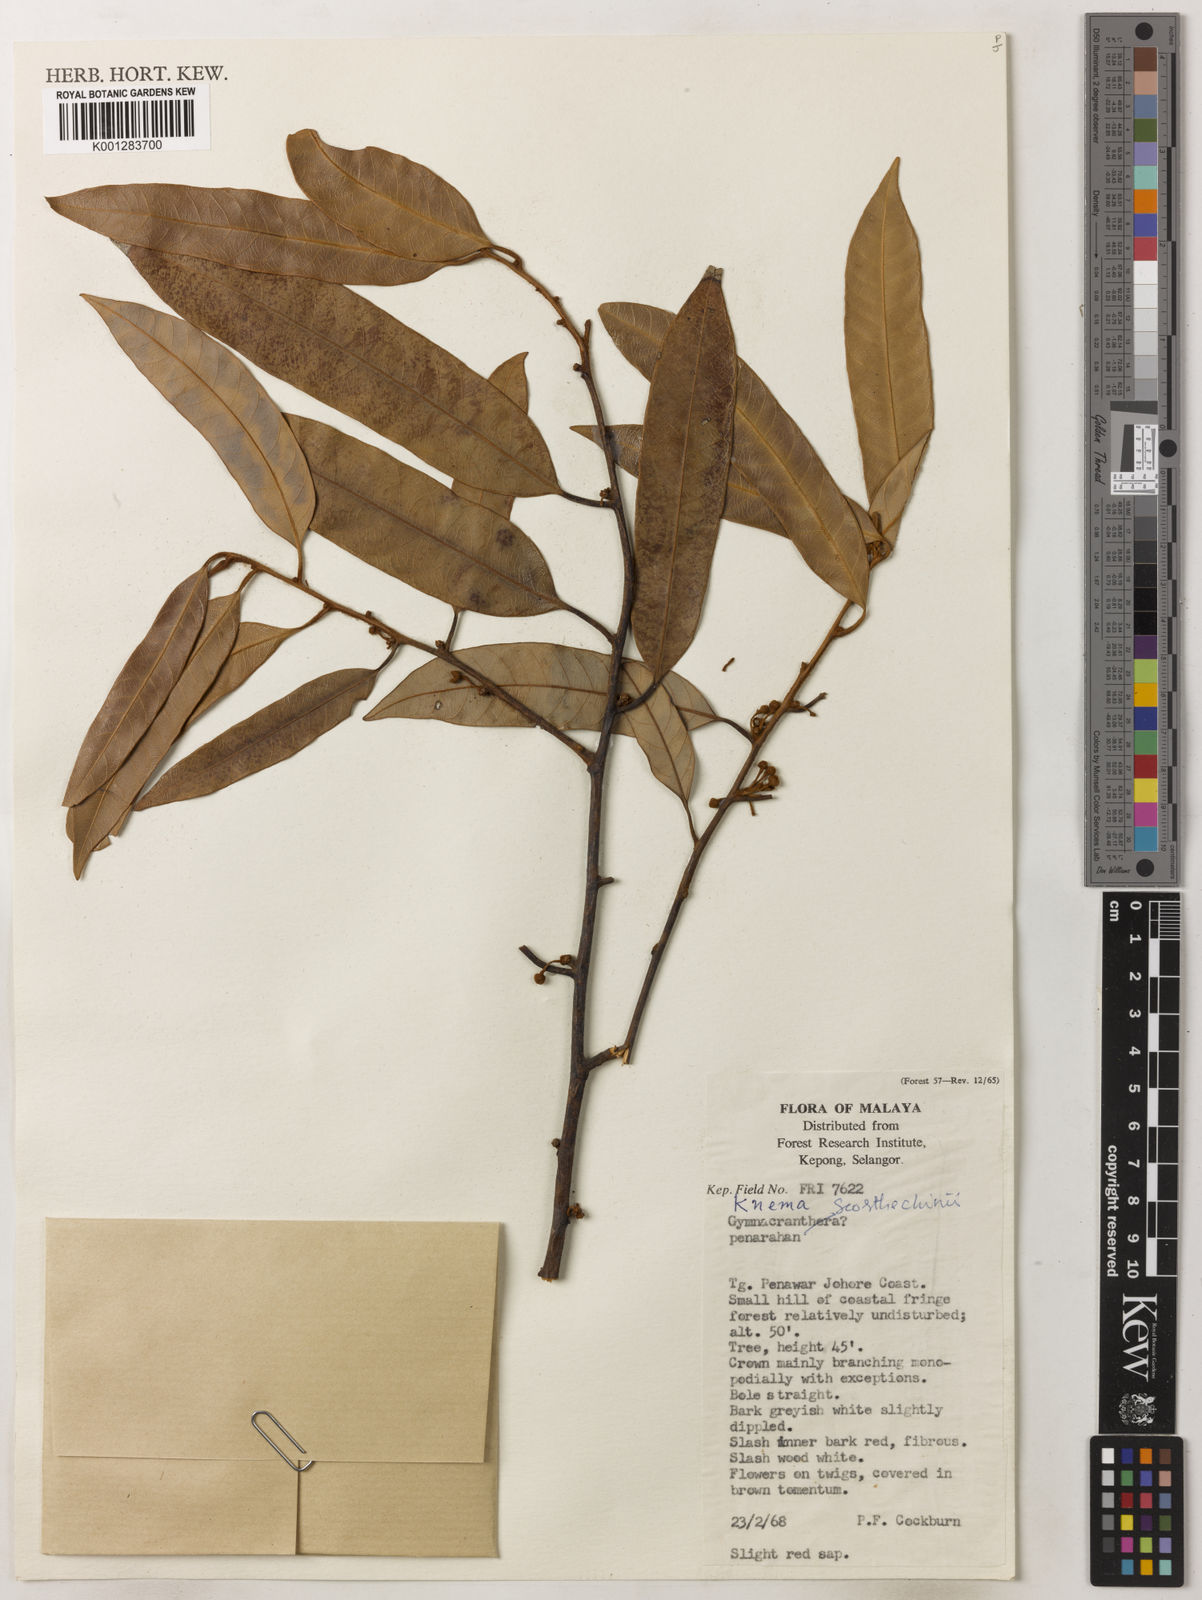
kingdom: Plantae
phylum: Tracheophyta
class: Magnoliopsida
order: Magnoliales
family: Myristicaceae
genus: Knema
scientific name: Knema scortechinii
